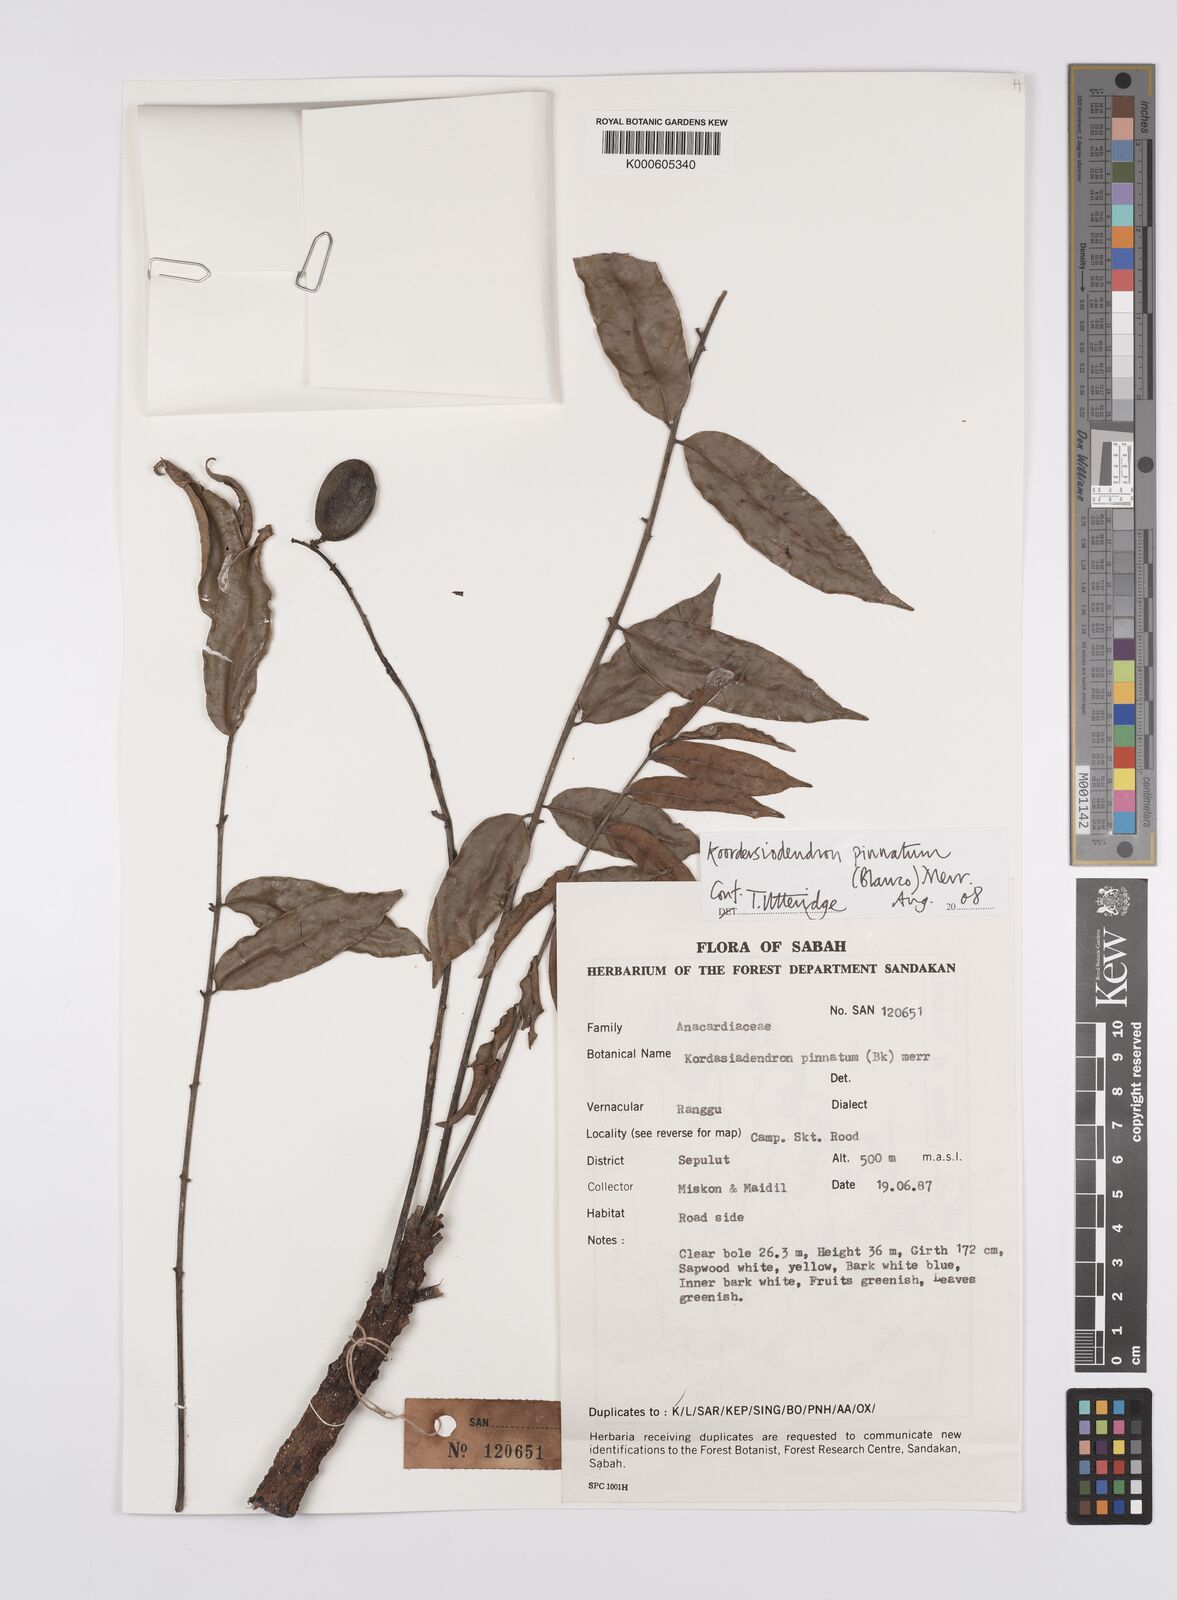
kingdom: Plantae
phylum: Tracheophyta
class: Magnoliopsida
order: Sapindales
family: Anacardiaceae
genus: Koordersiodendron
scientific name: Koordersiodendron pinnatum
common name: Ranggu
